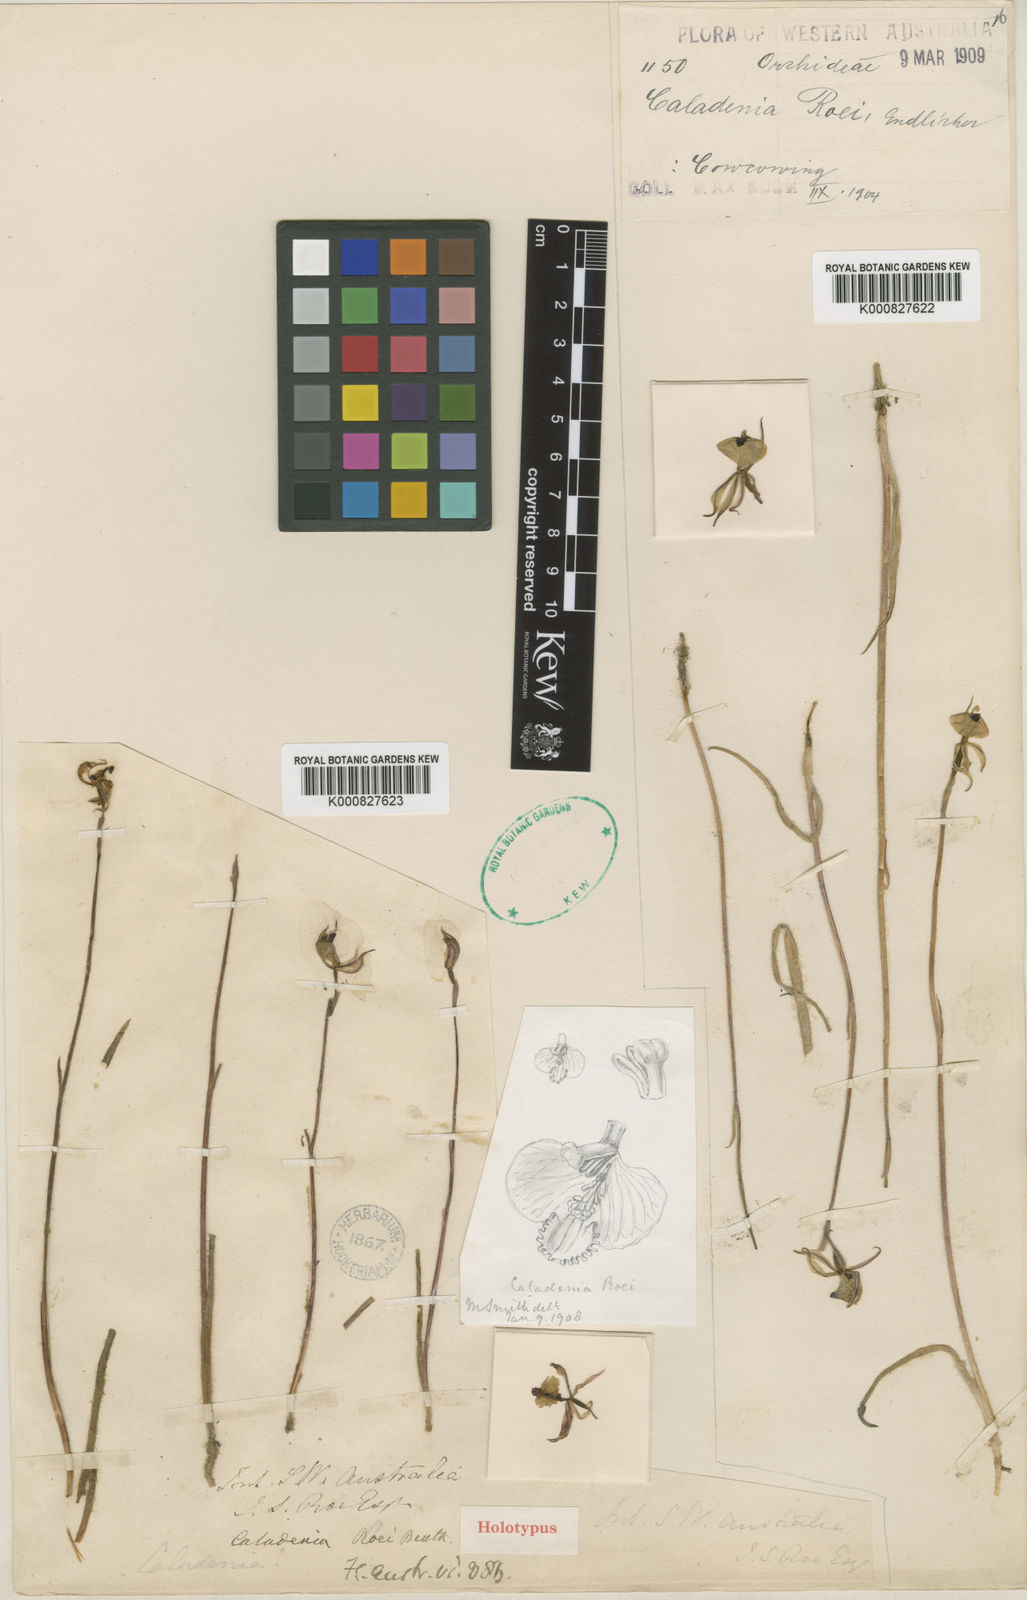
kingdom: Plantae
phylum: Tracheophyta
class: Liliopsida
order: Asparagales
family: Orchidaceae
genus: Caladenia
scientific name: Caladenia
